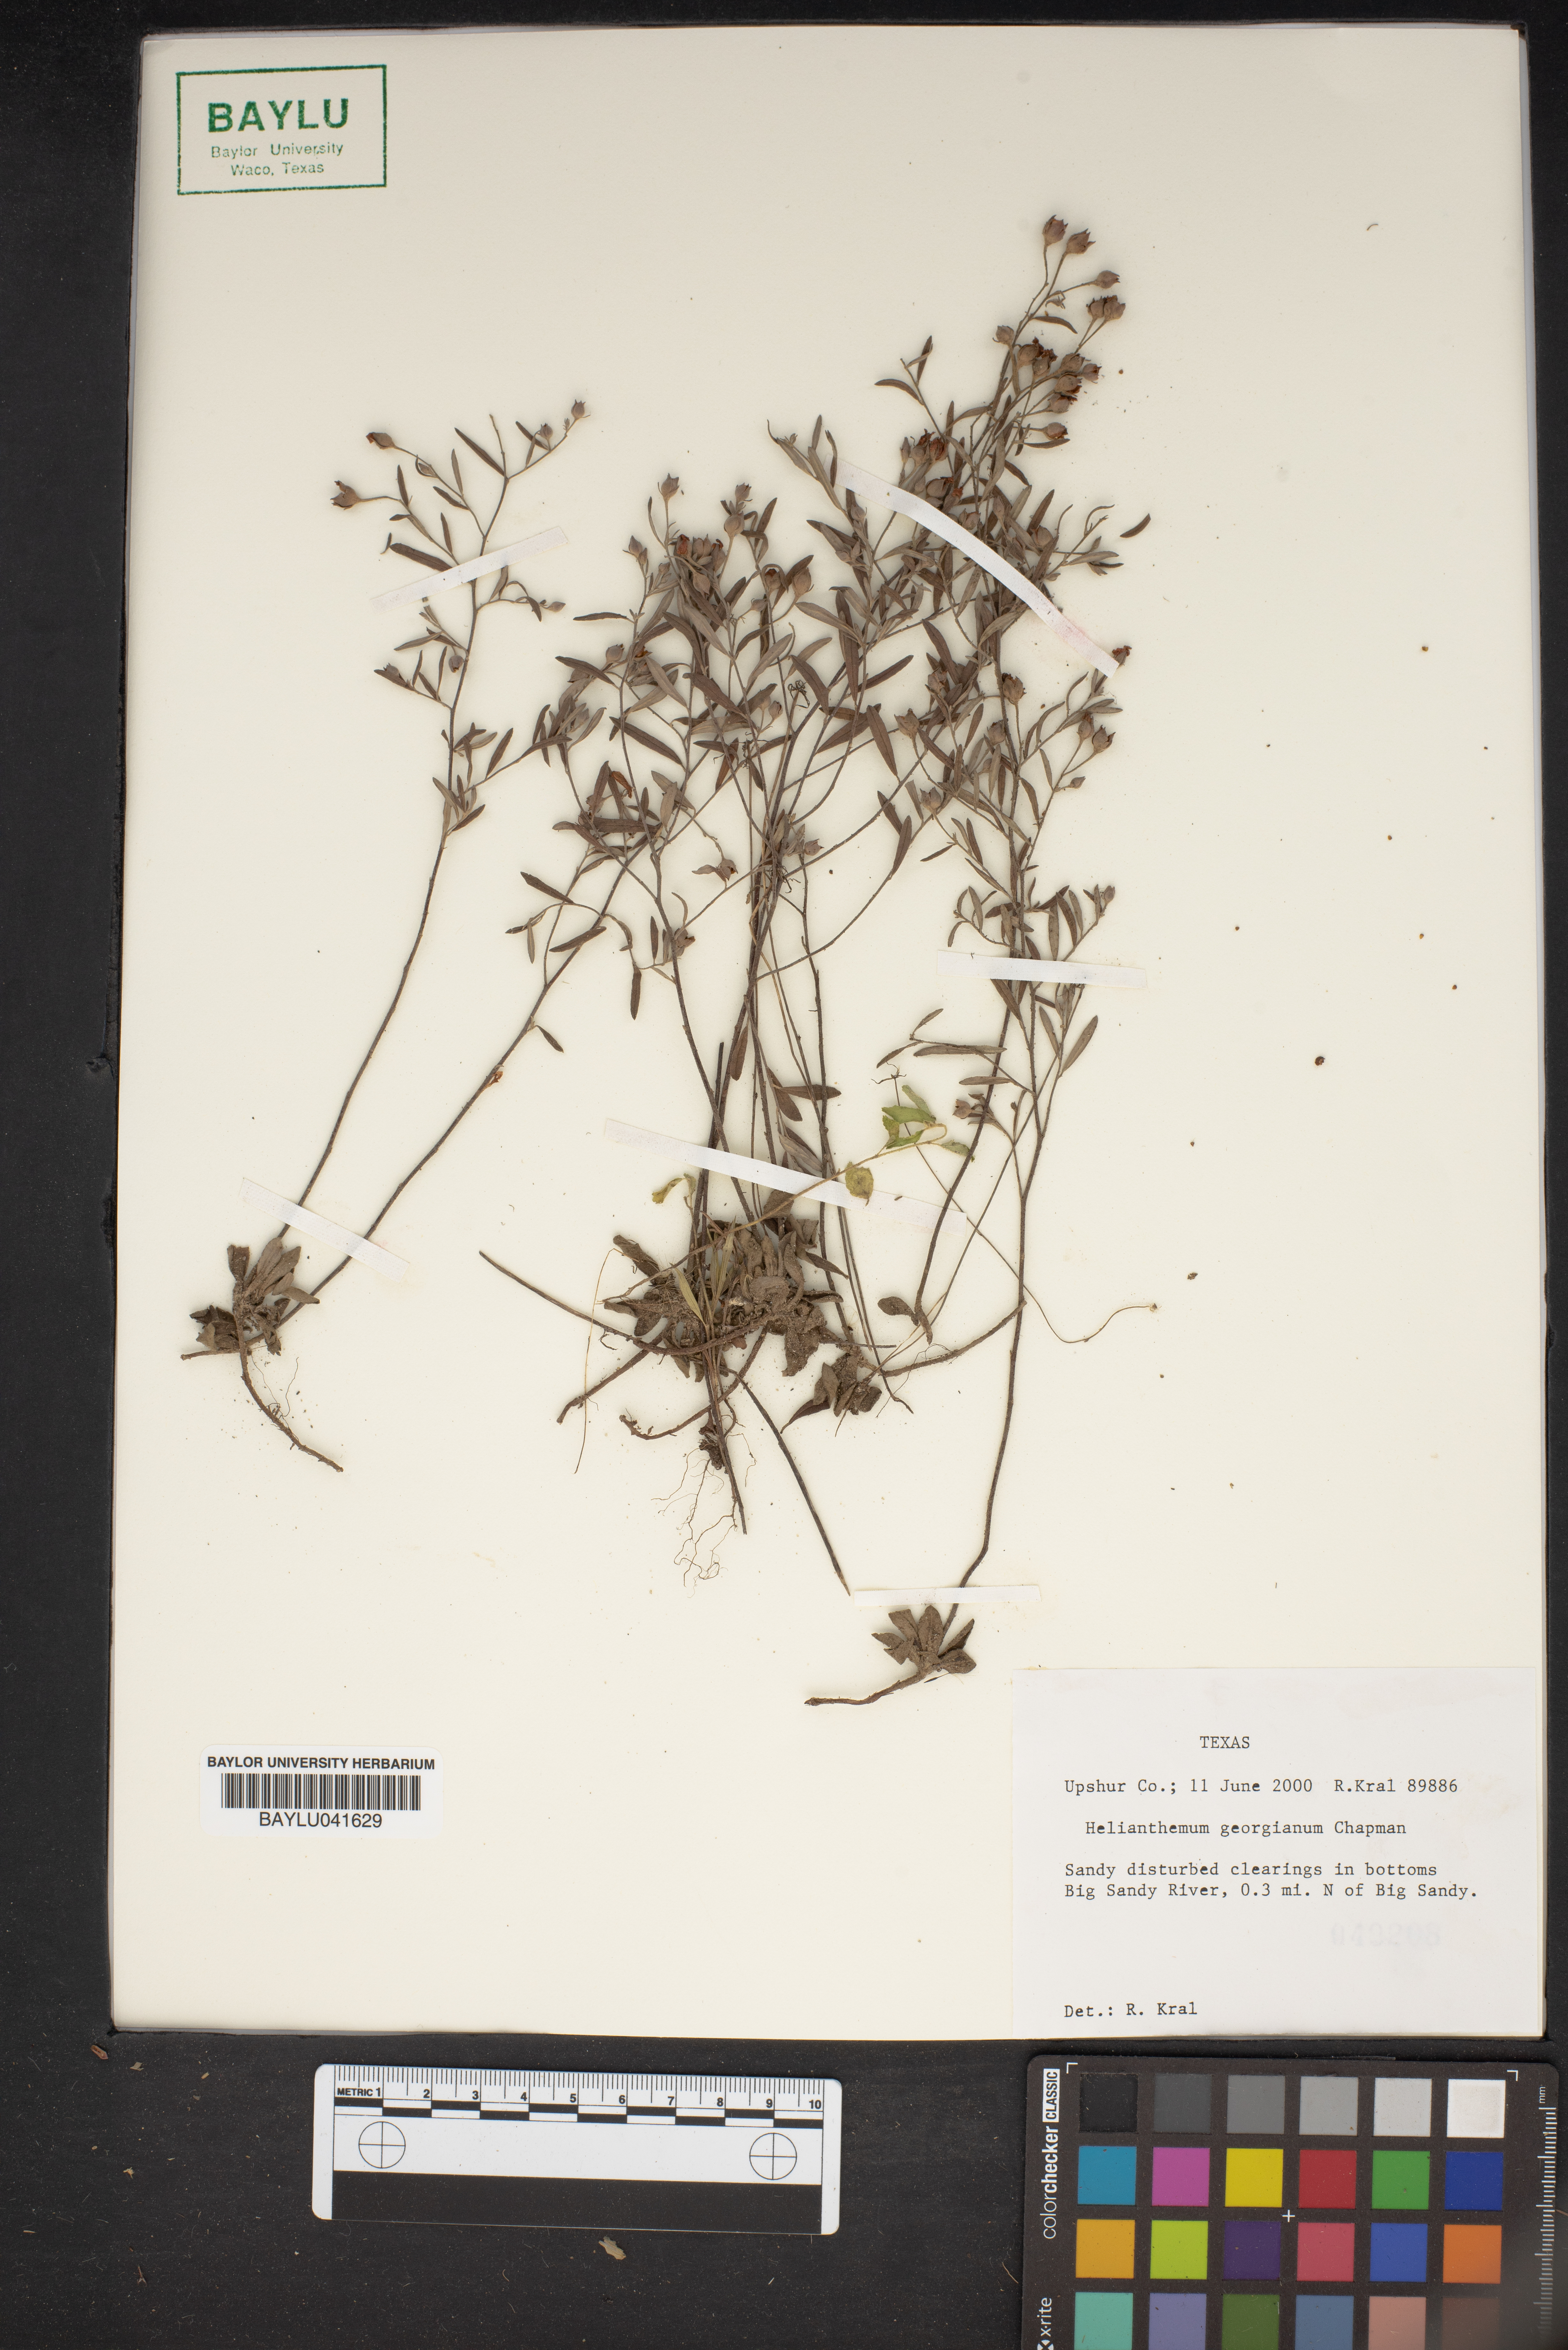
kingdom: Plantae
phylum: Tracheophyta
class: Magnoliopsida
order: Malvales
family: Cistaceae
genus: Crocanthemum
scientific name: Crocanthemum georgianum
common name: Georgia frostweed
